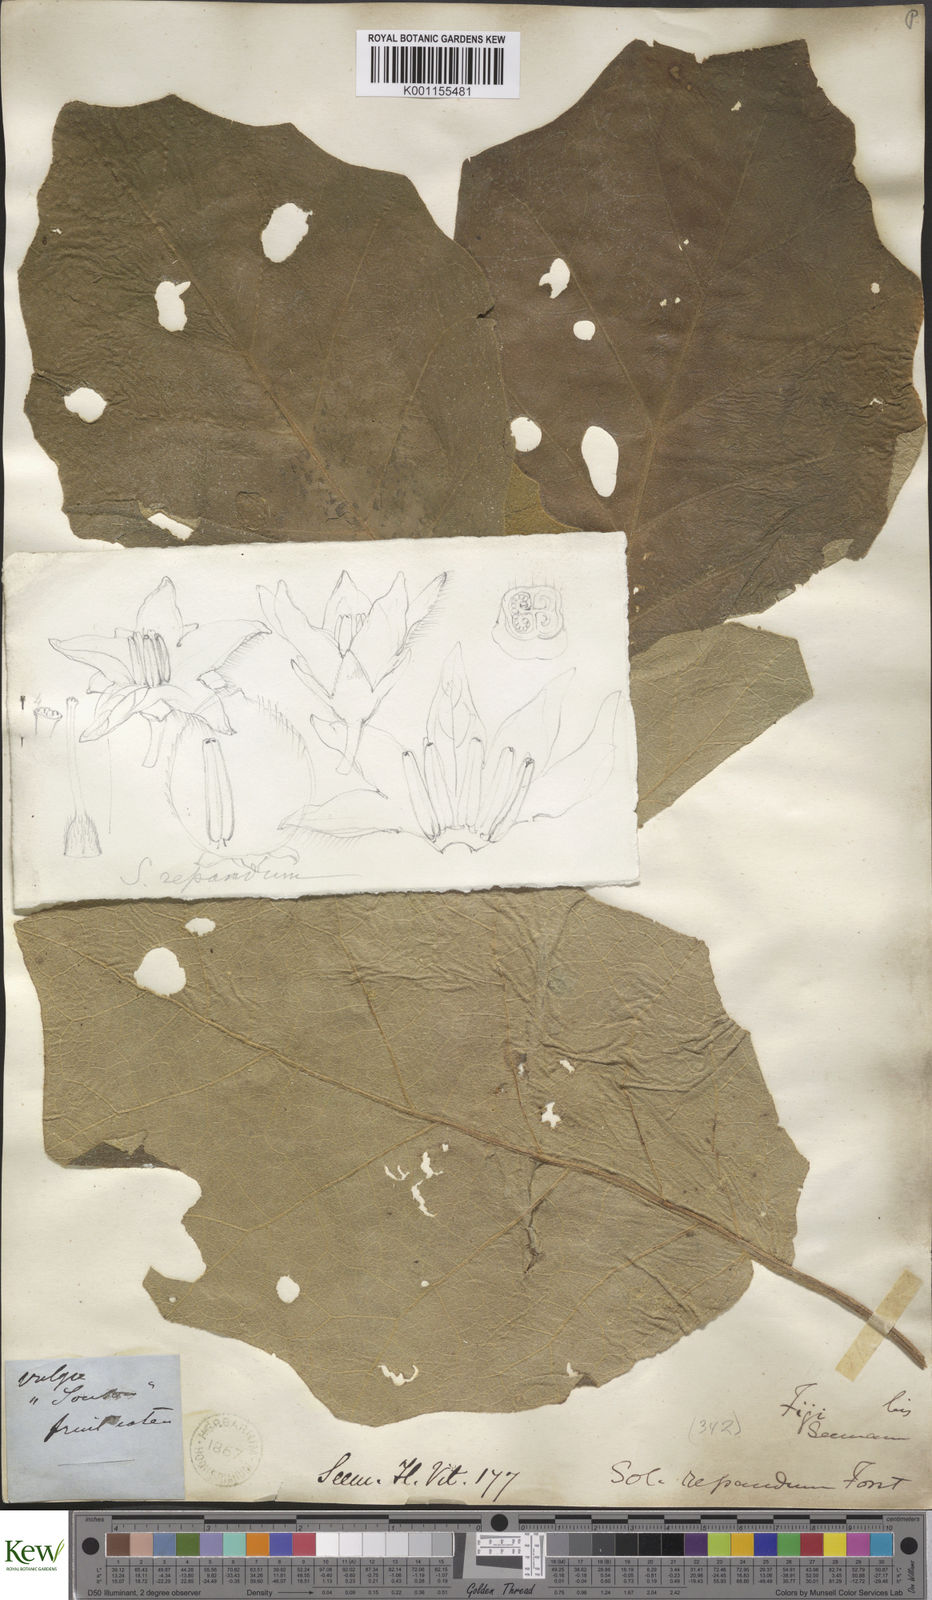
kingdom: Plantae
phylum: Tracheophyta
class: Magnoliopsida
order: Solanales
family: Solanaceae
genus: Solanum
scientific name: Solanum repandum
